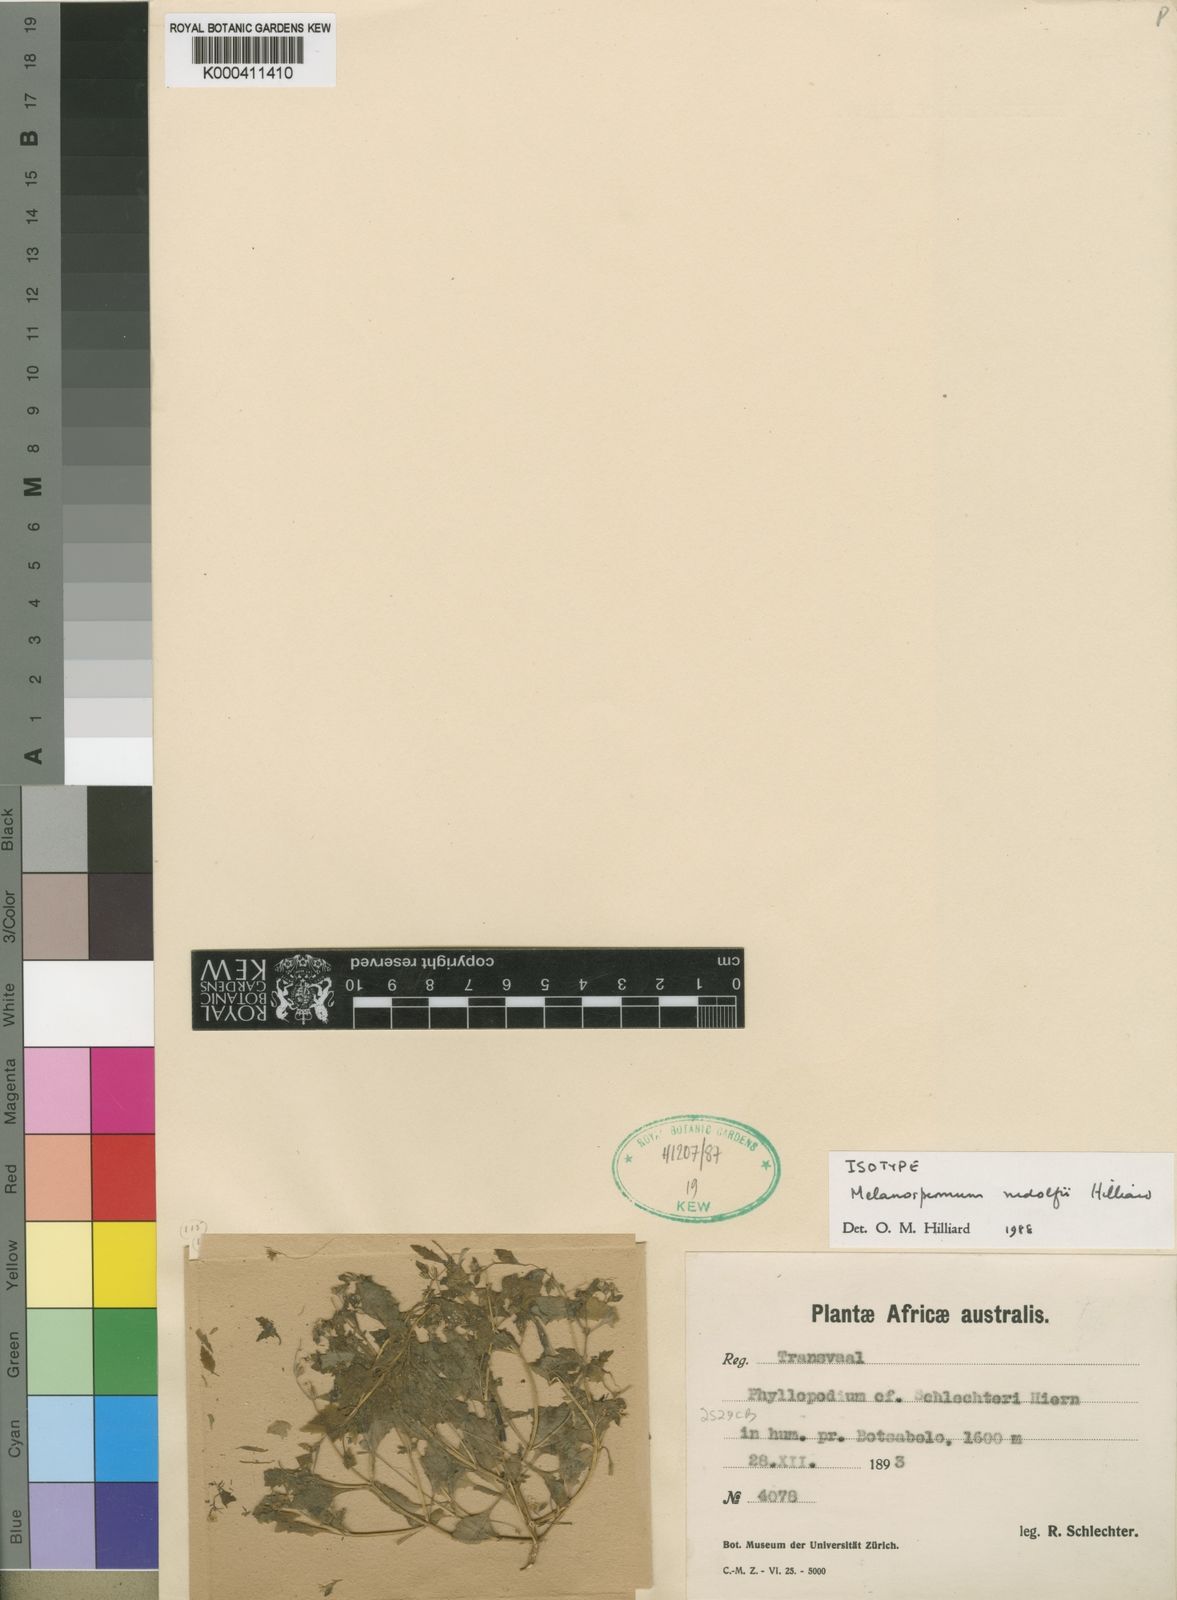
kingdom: Plantae
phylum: Tracheophyta
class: Magnoliopsida
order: Lamiales
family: Scrophulariaceae
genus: Melanospermum
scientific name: Melanospermum rudolfii
